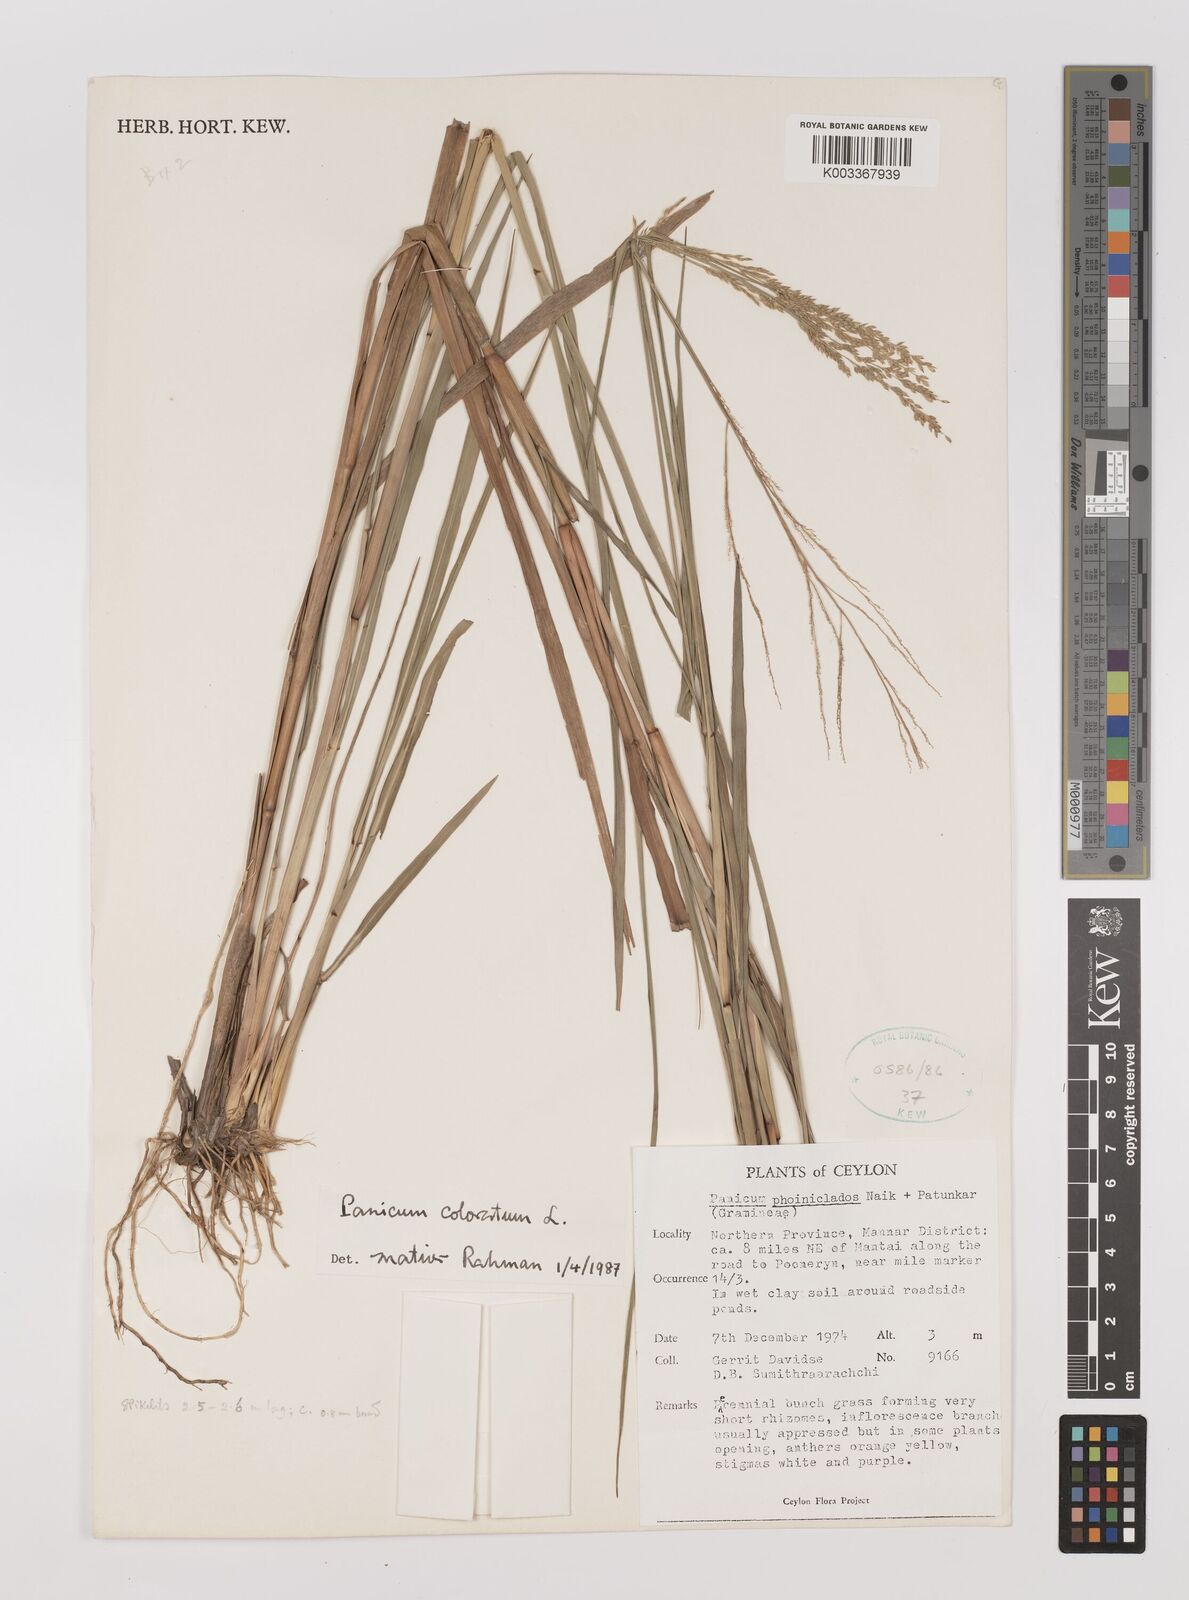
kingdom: Plantae
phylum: Tracheophyta
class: Liliopsida
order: Poales
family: Poaceae
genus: Panicum
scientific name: Panicum phoiniclados
